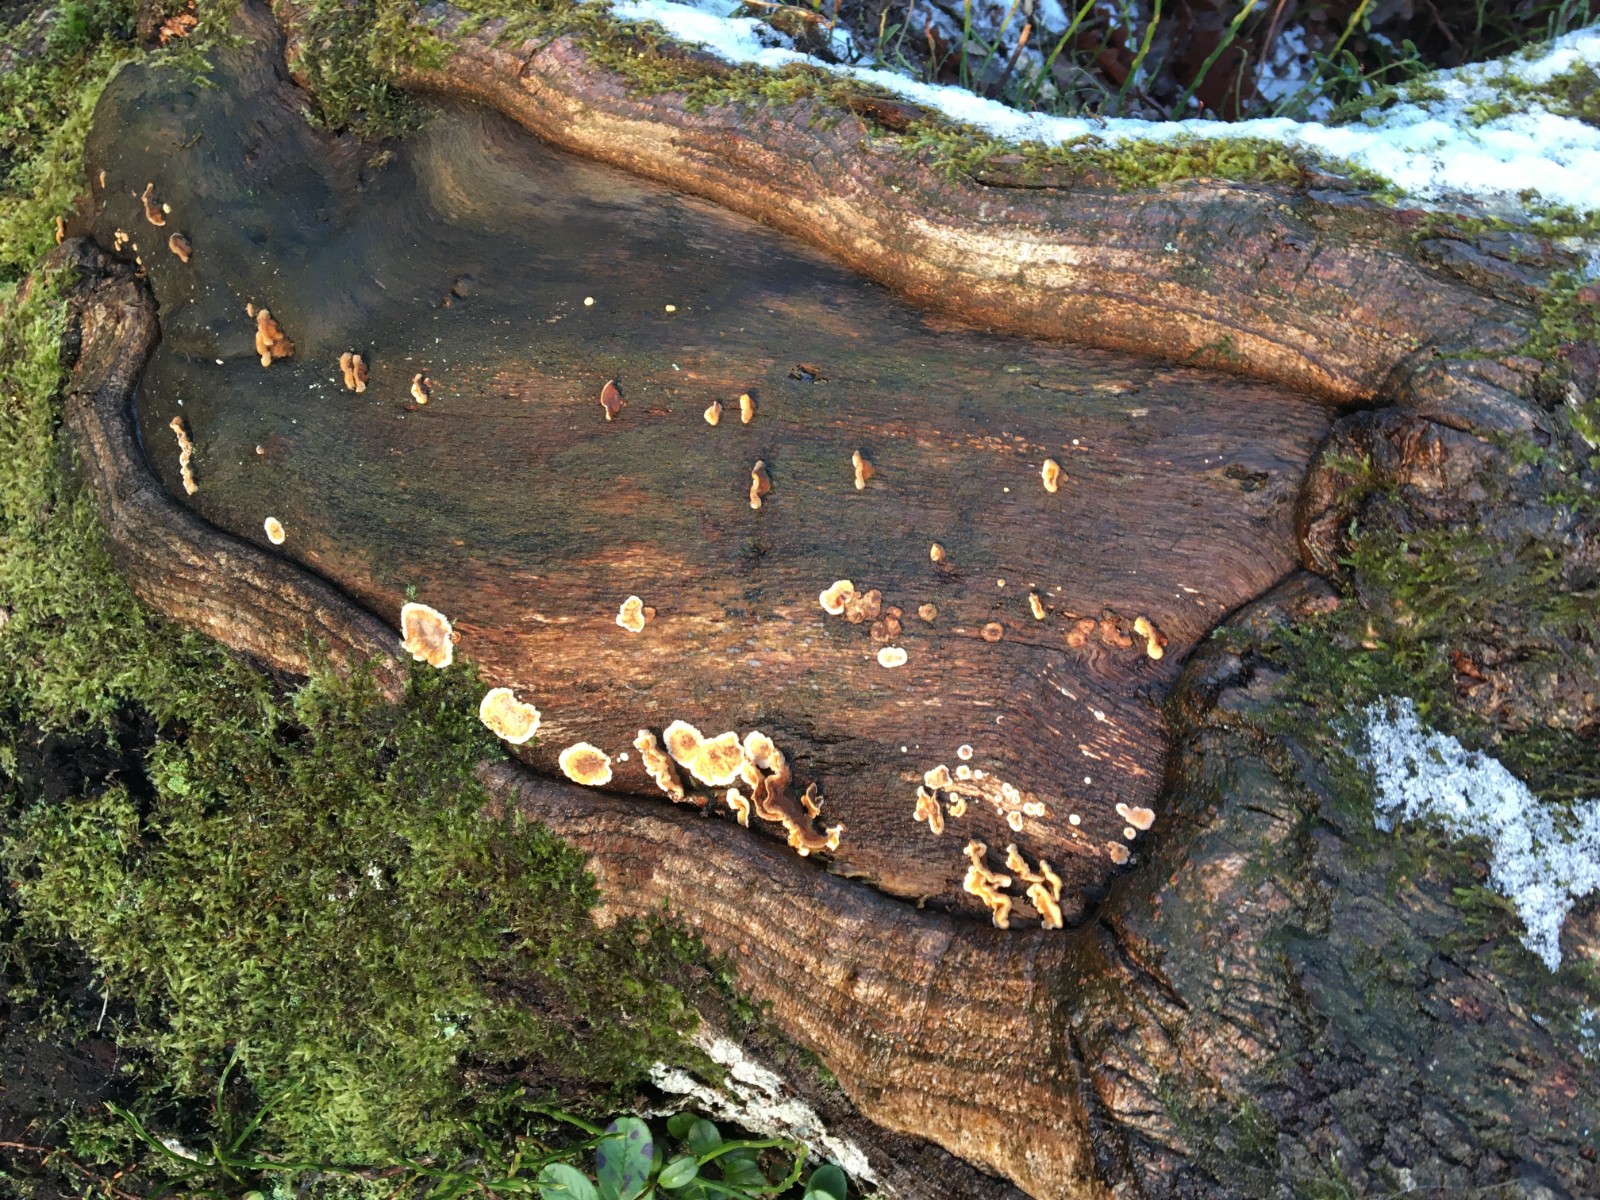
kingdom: Fungi
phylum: Basidiomycota
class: Agaricomycetes
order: Russulales
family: Stereaceae
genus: Stereum
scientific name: Stereum hirsutum
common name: håret lædersvamp
